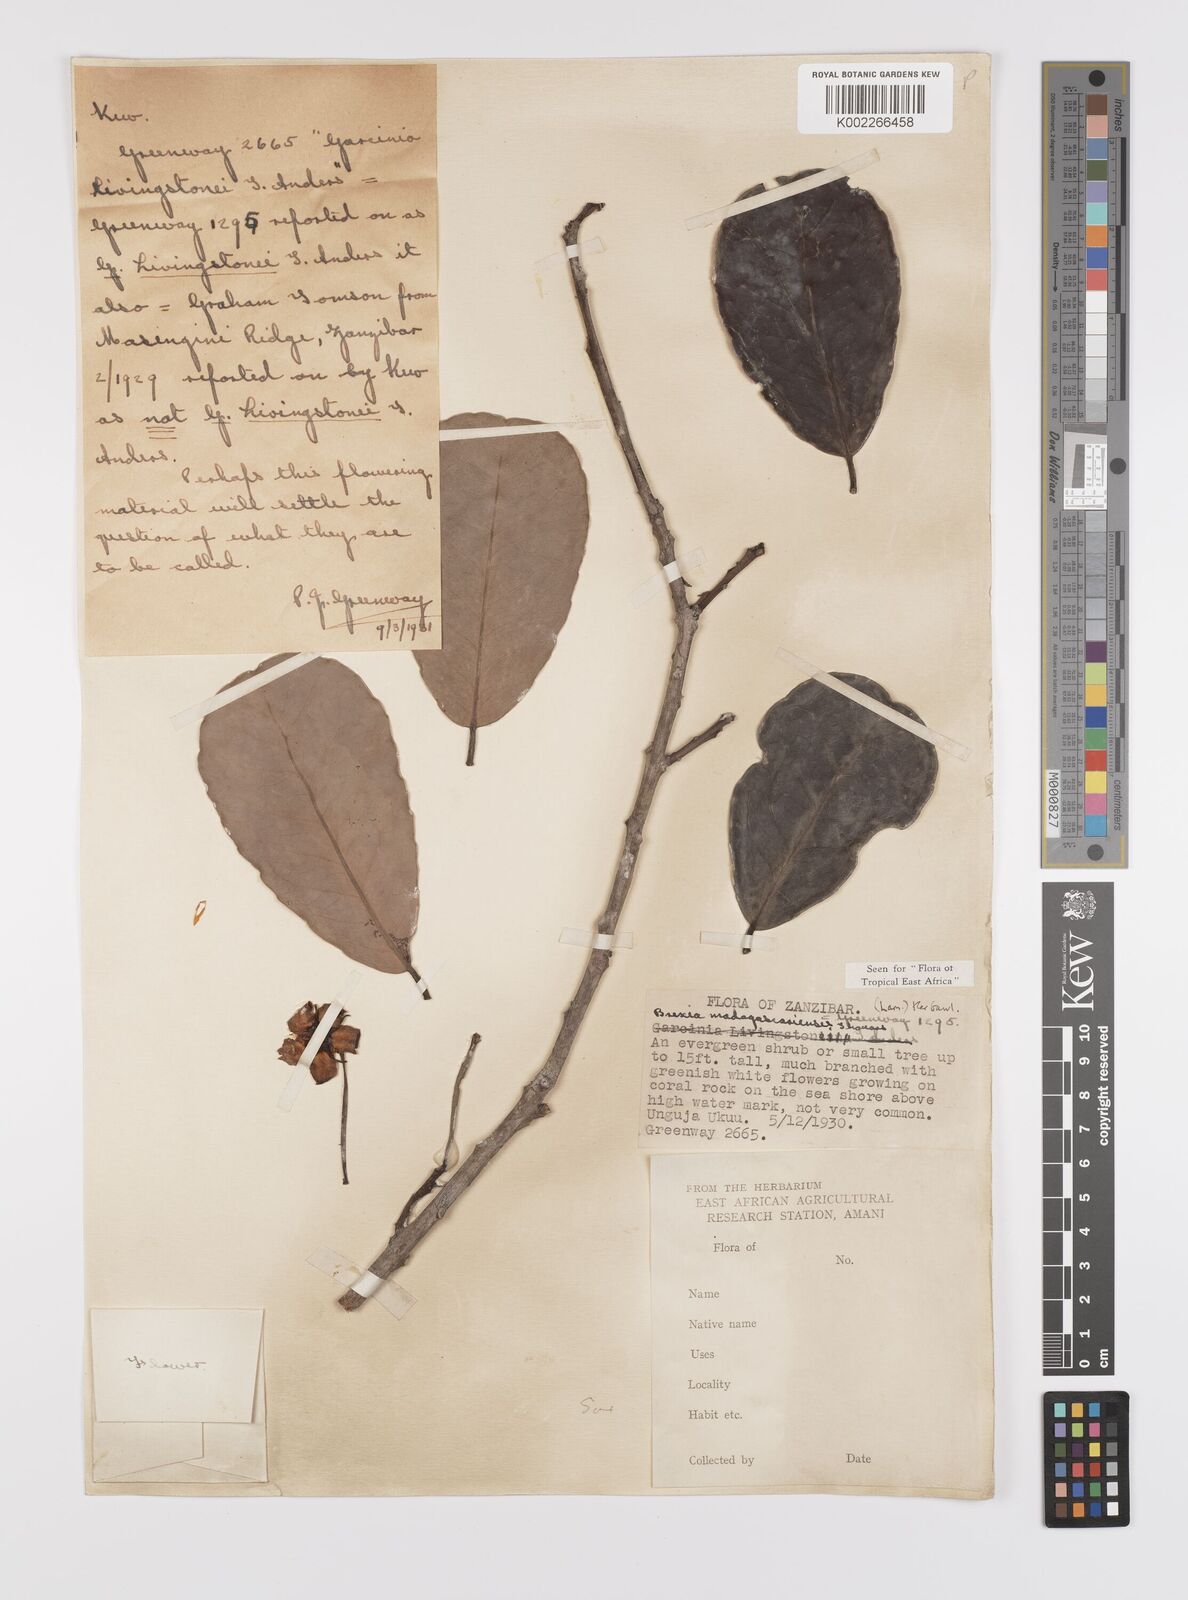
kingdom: Plantae
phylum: Tracheophyta
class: Magnoliopsida
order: Celastrales
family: Celastraceae
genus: Brexia
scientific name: Brexia madagascariensis
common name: Brexia
